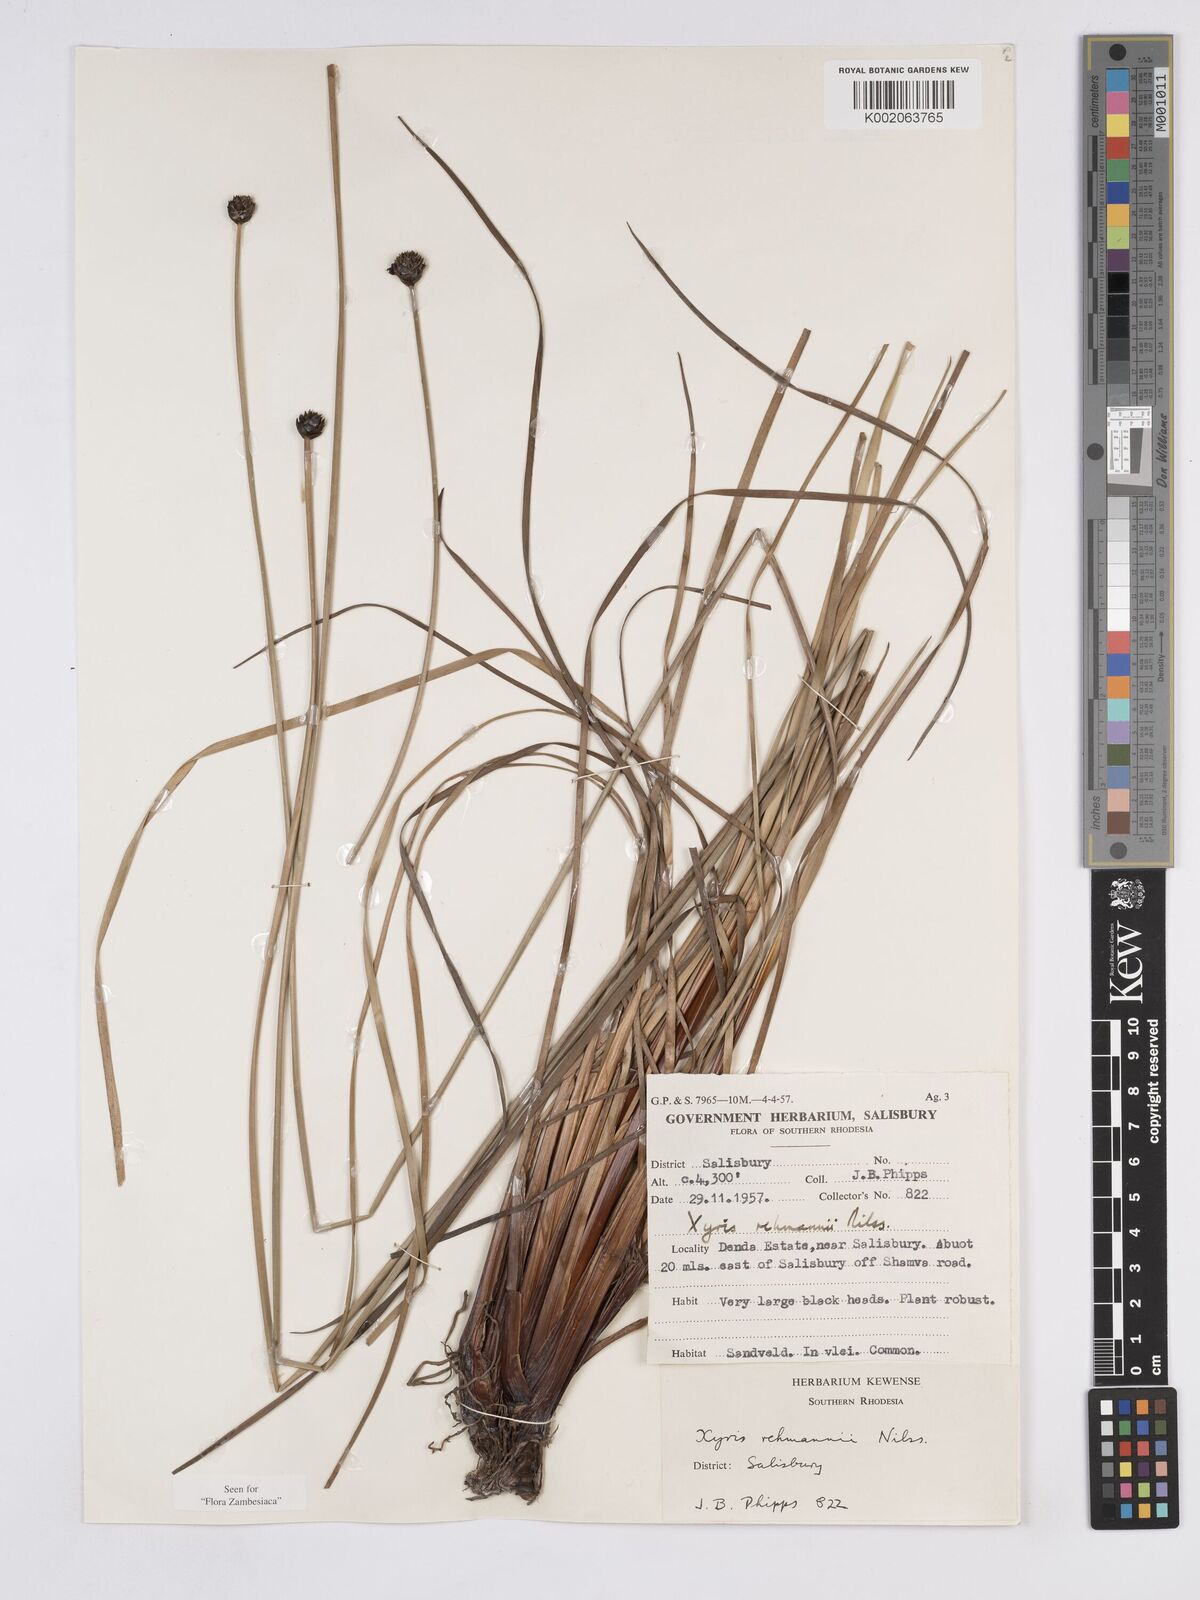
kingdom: Plantae
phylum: Tracheophyta
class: Liliopsida
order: Poales
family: Xyridaceae
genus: Xyris
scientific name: Xyris rehmannii
